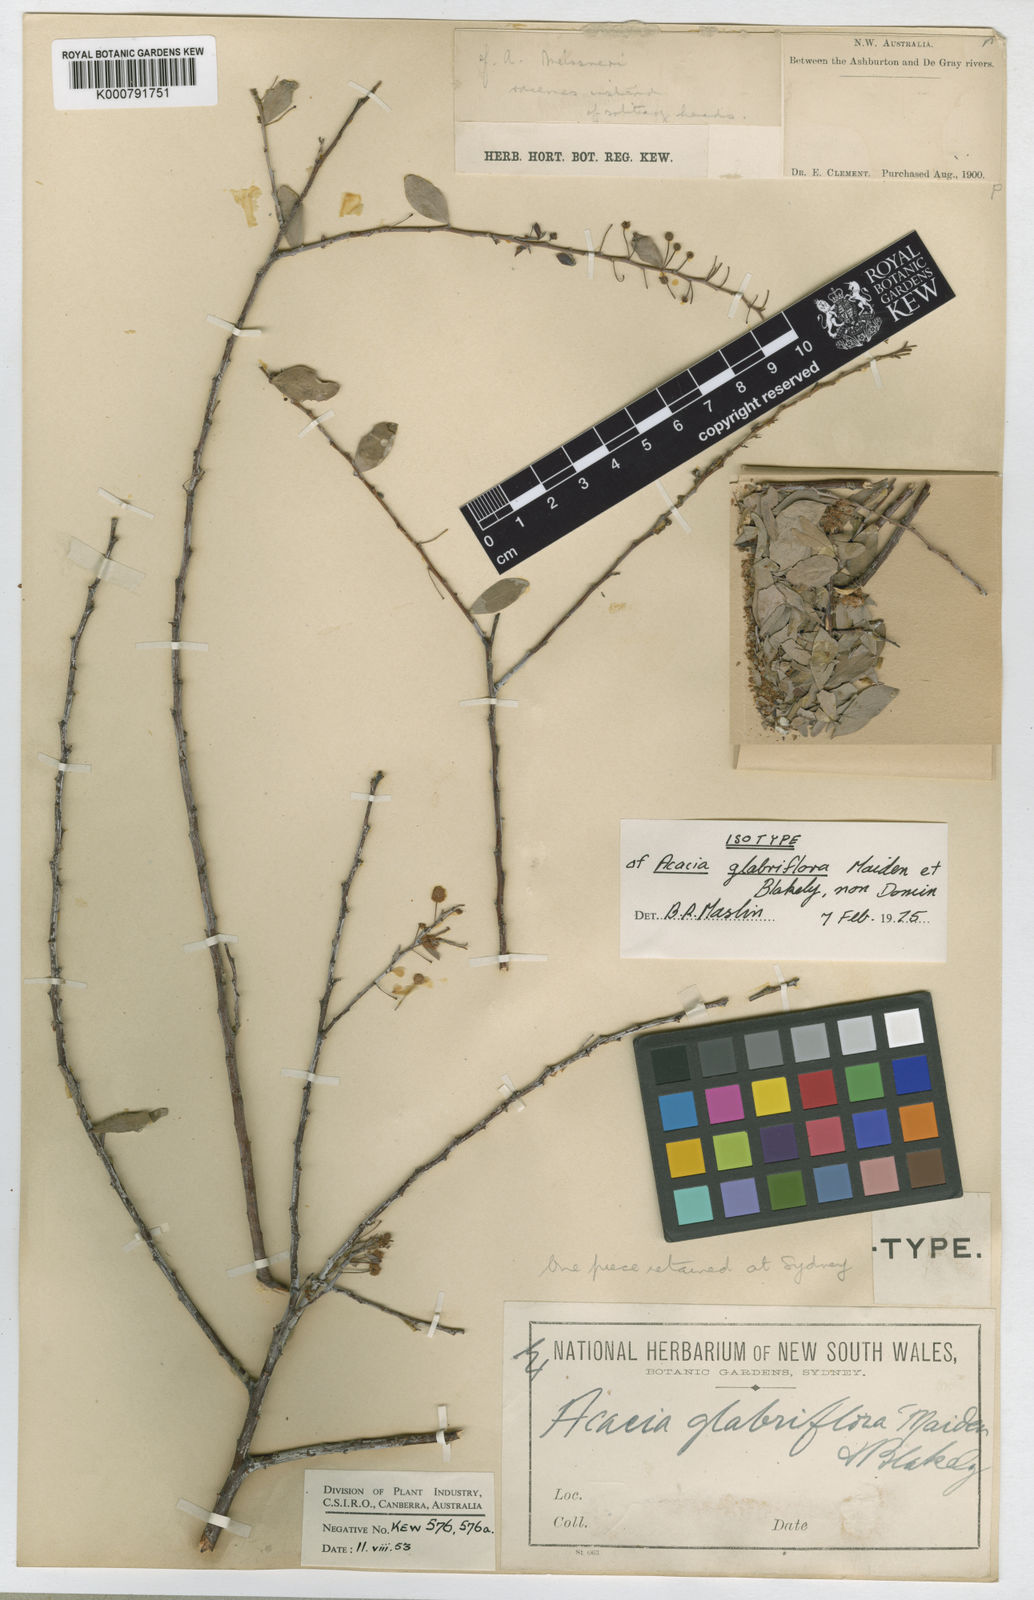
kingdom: Plantae
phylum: Tracheophyta
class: Magnoliopsida
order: Fabales
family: Fabaceae
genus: Acacia
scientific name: Acacia glaucocaesia
